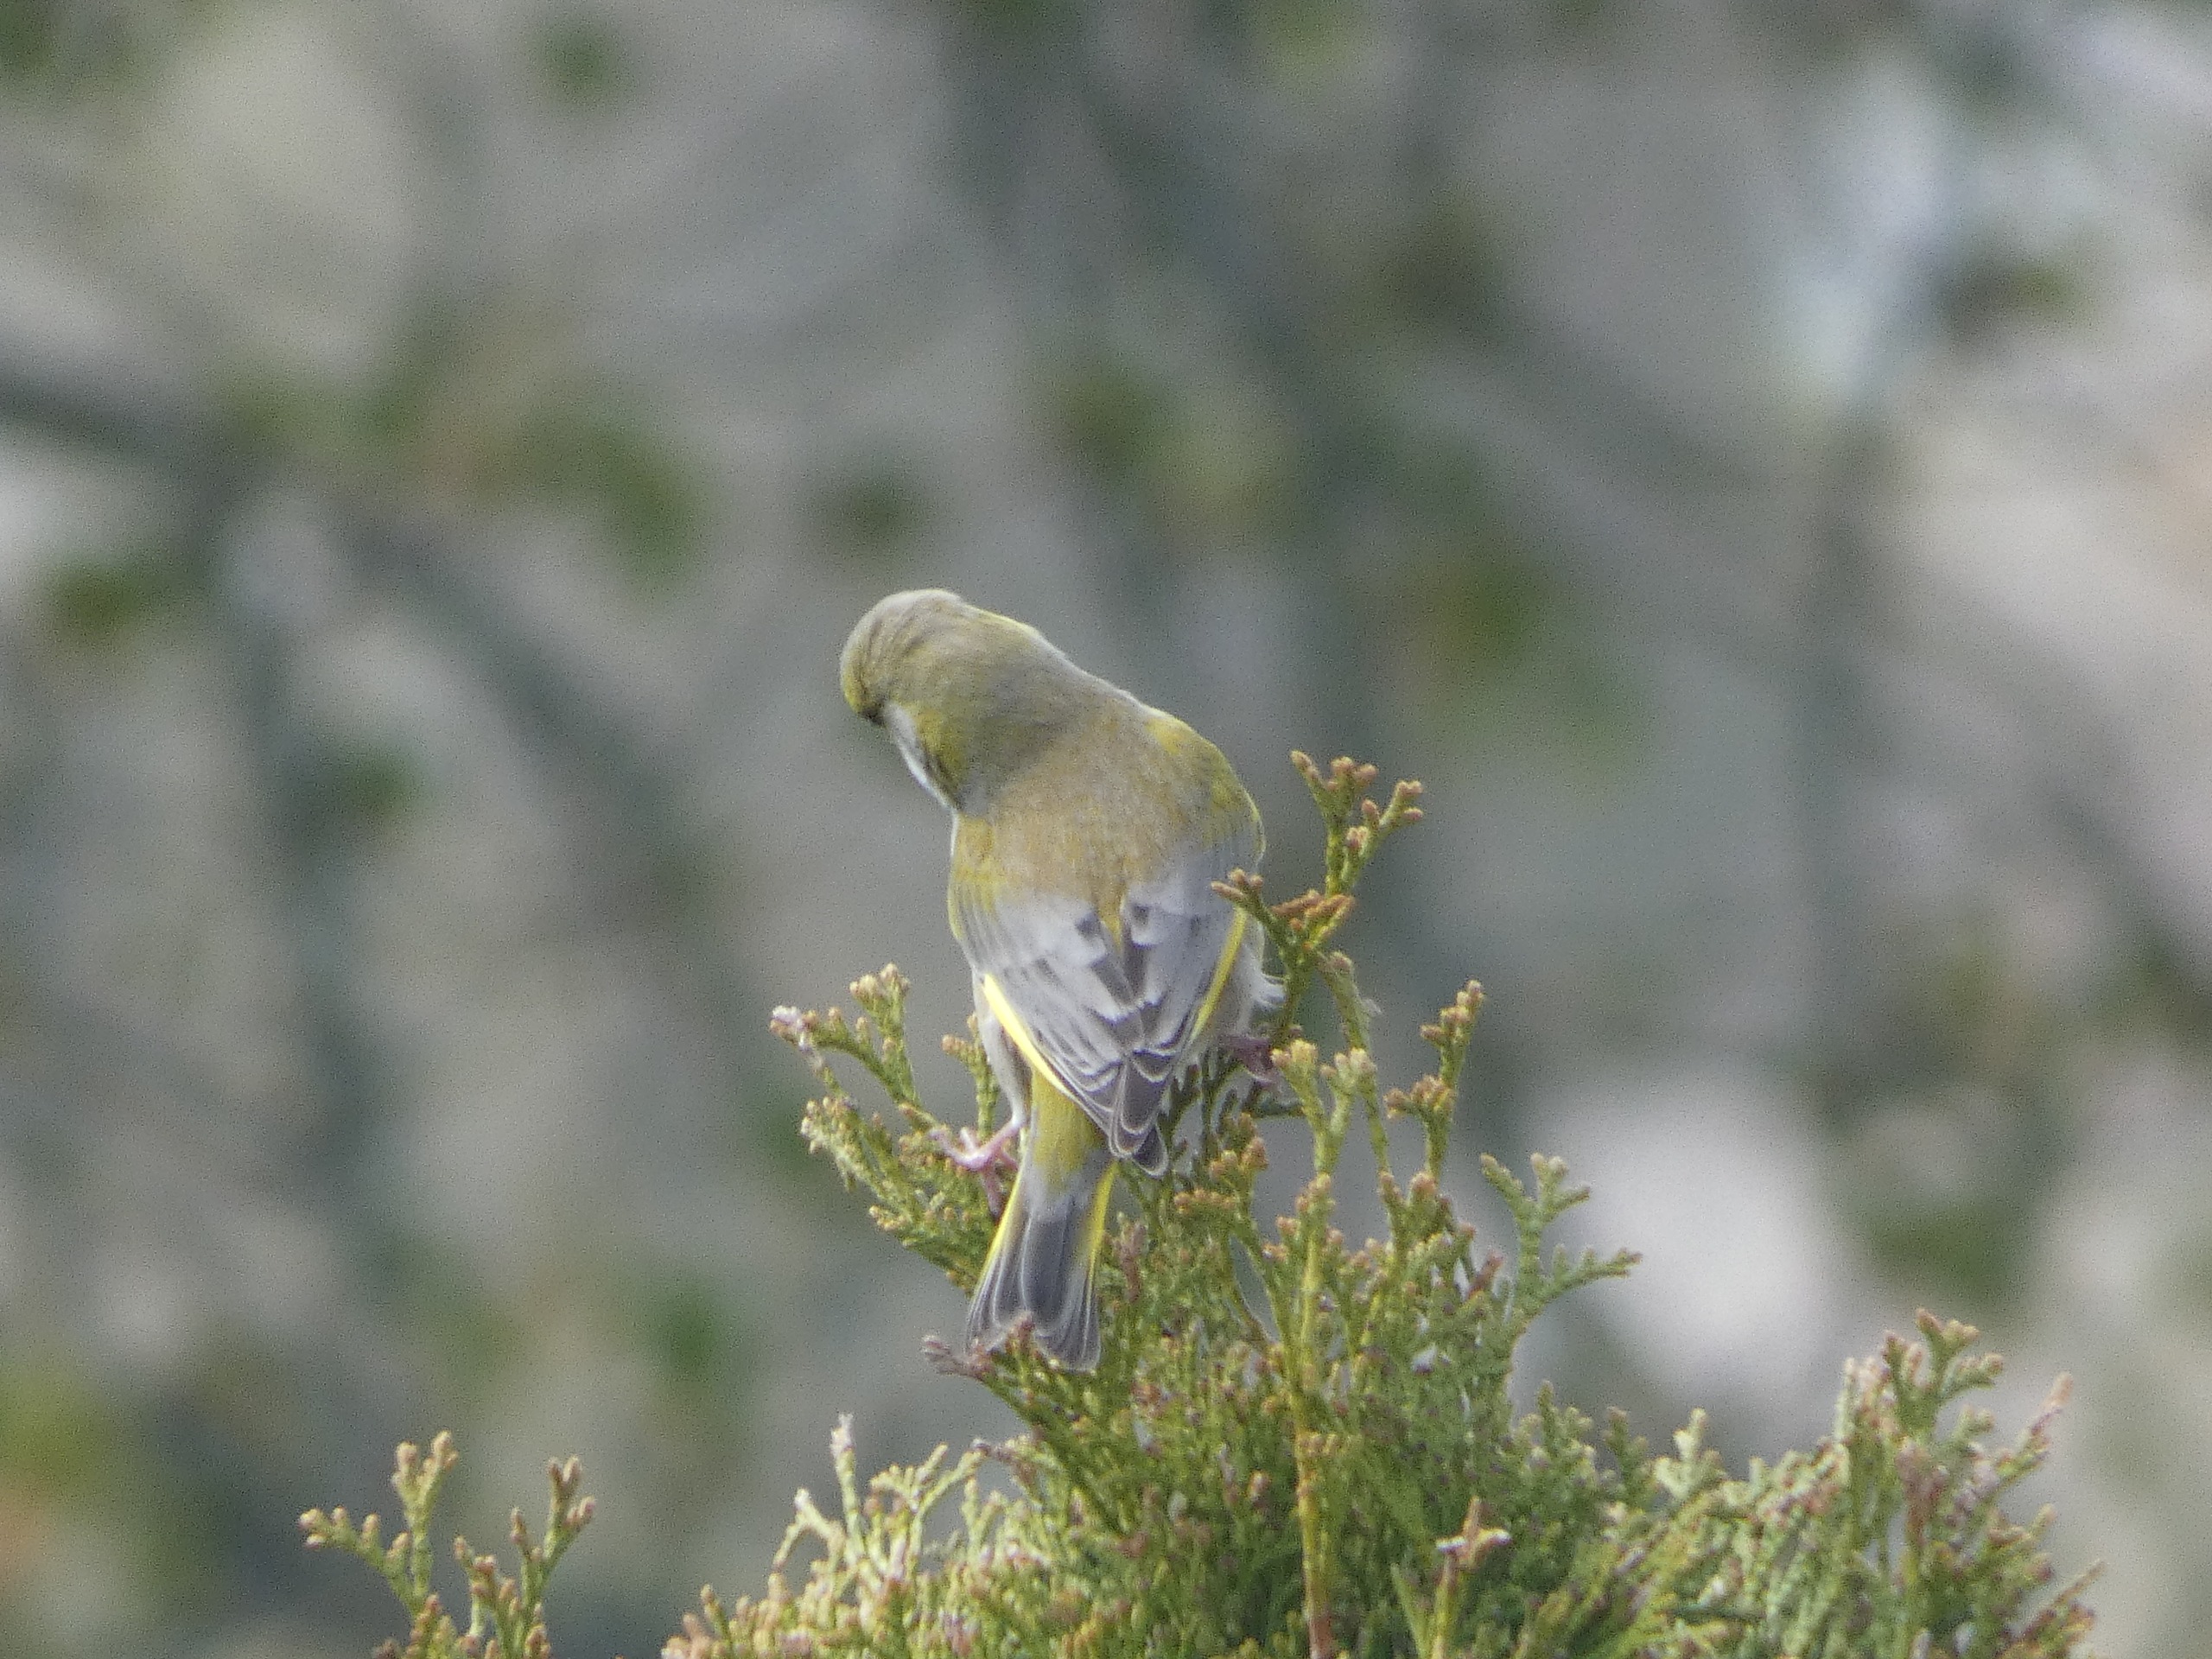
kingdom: Plantae
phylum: Tracheophyta
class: Liliopsida
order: Poales
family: Poaceae
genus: Chloris
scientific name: Chloris chloris
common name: Grønirisk
